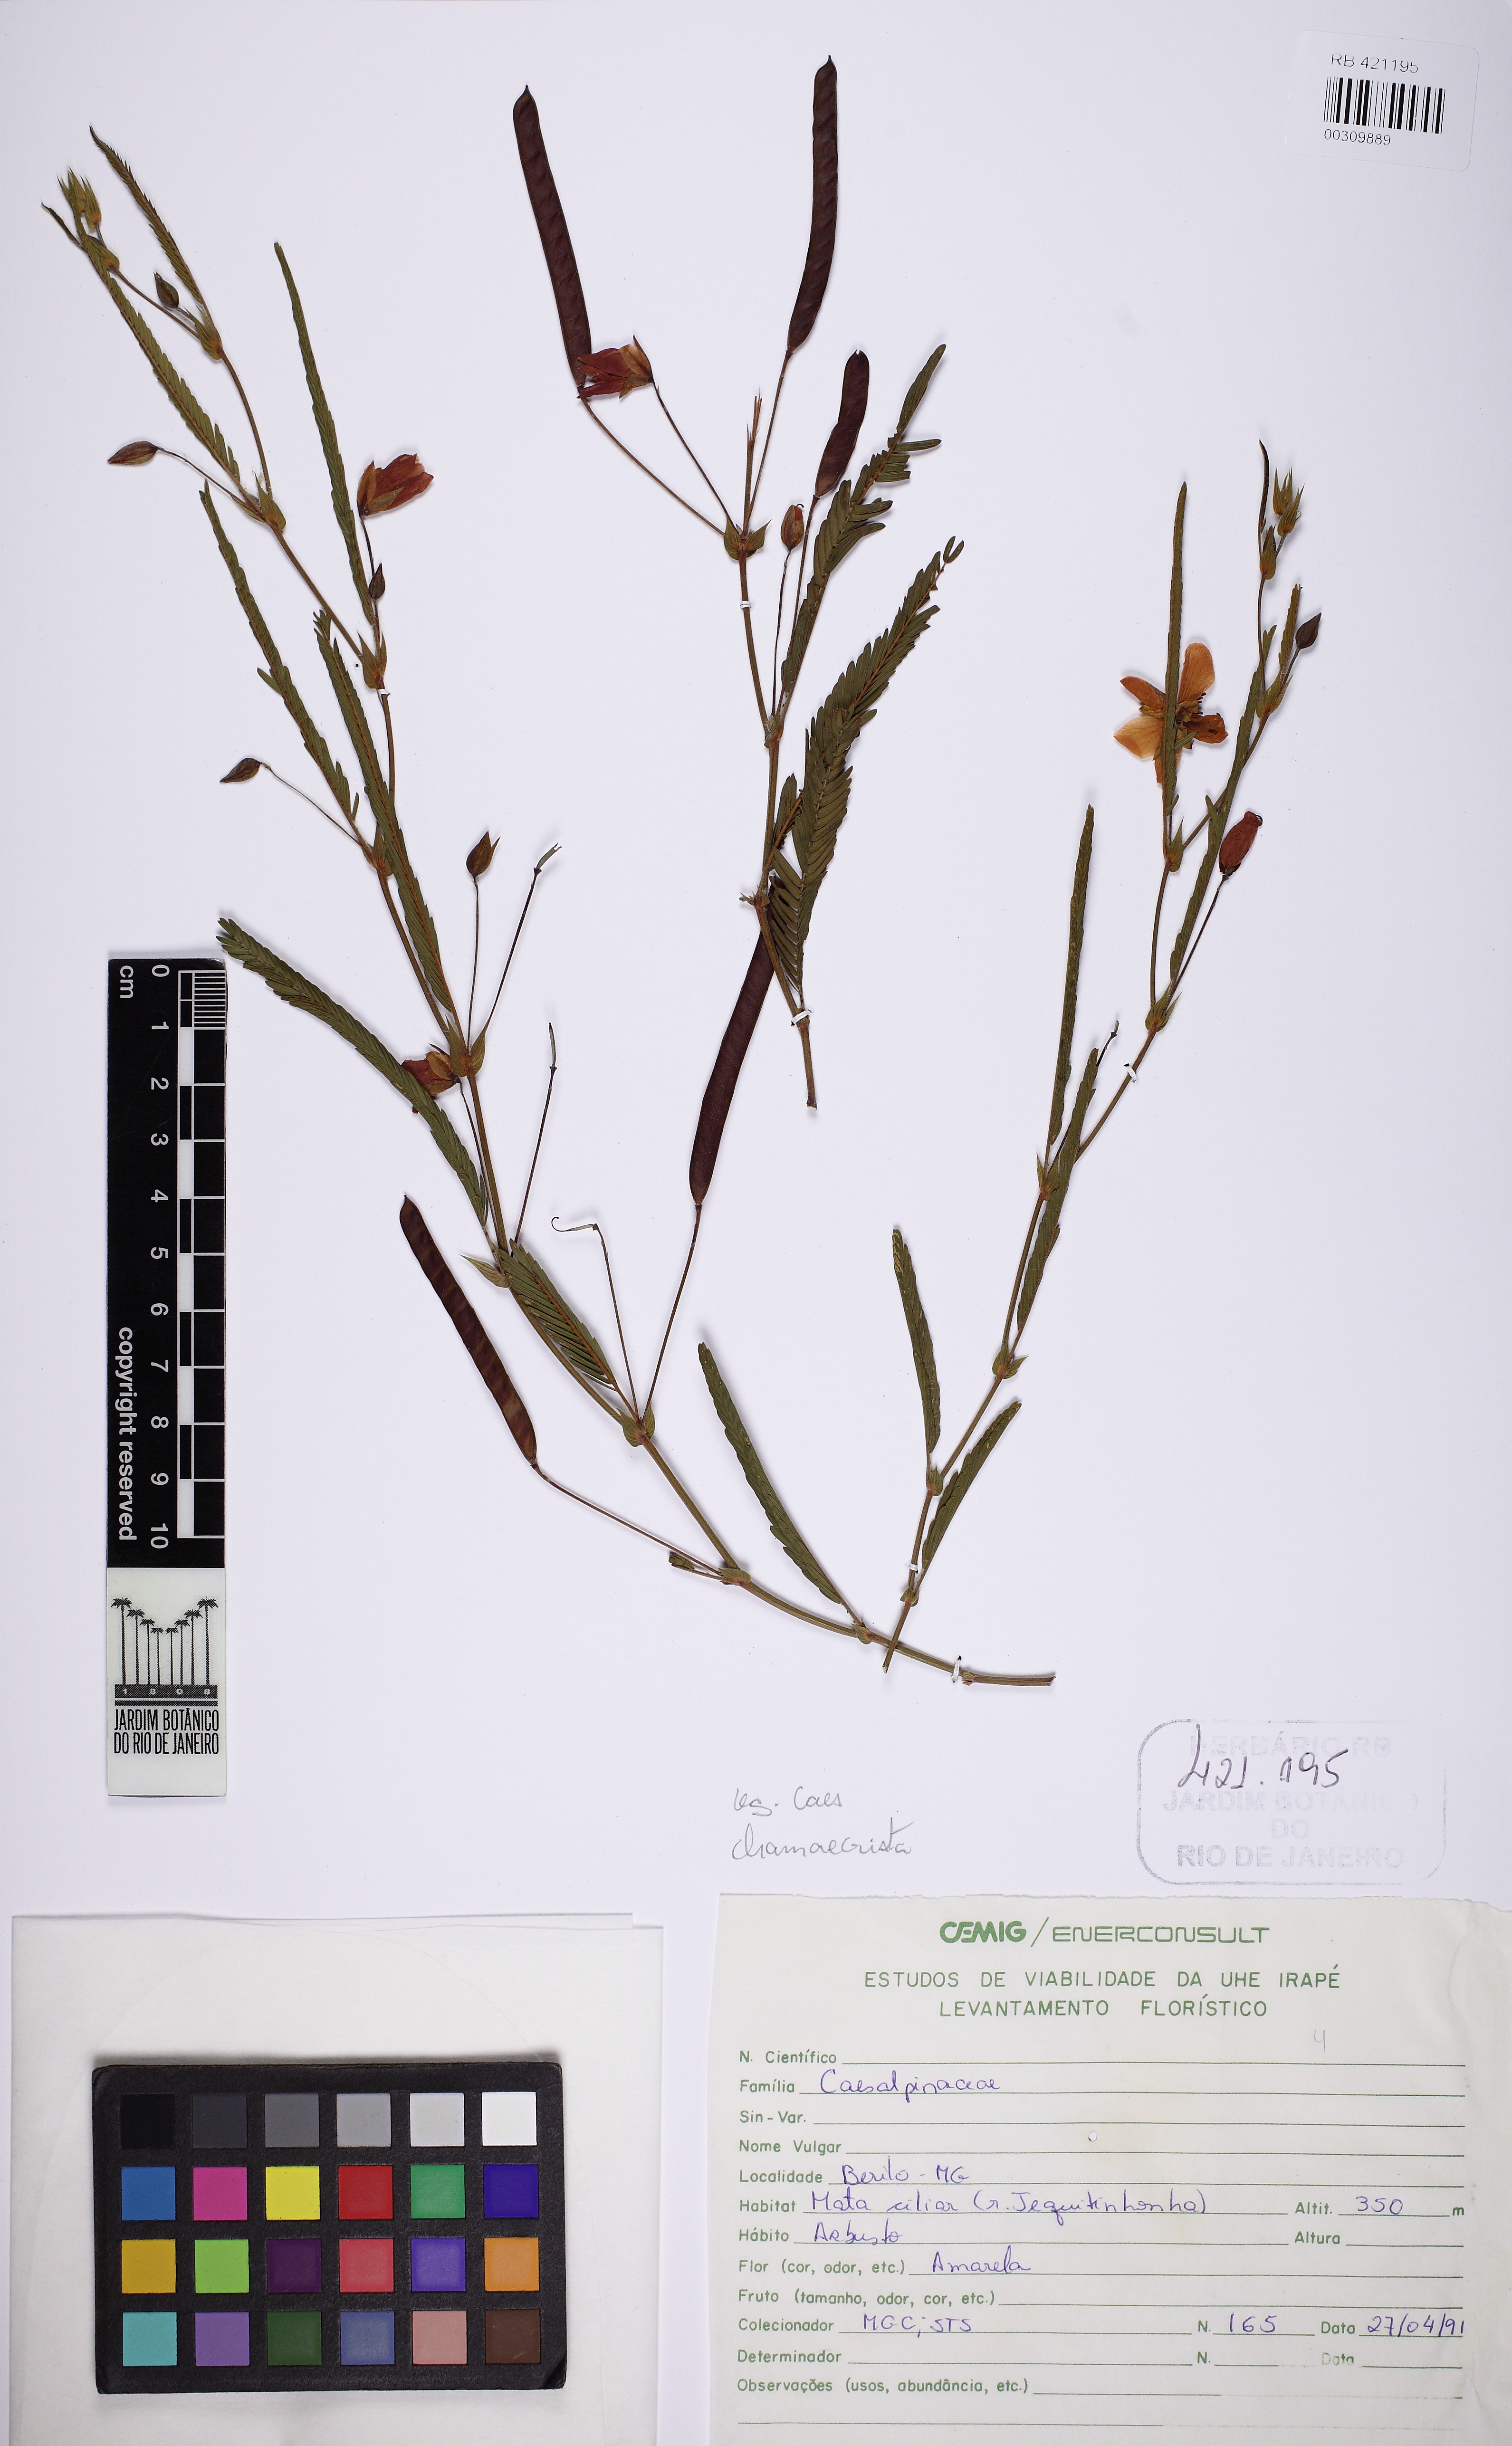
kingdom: Plantae
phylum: Tracheophyta
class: Magnoliopsida
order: Fabales
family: Fabaceae
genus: Chamaecrista
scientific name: Chamaecrista
